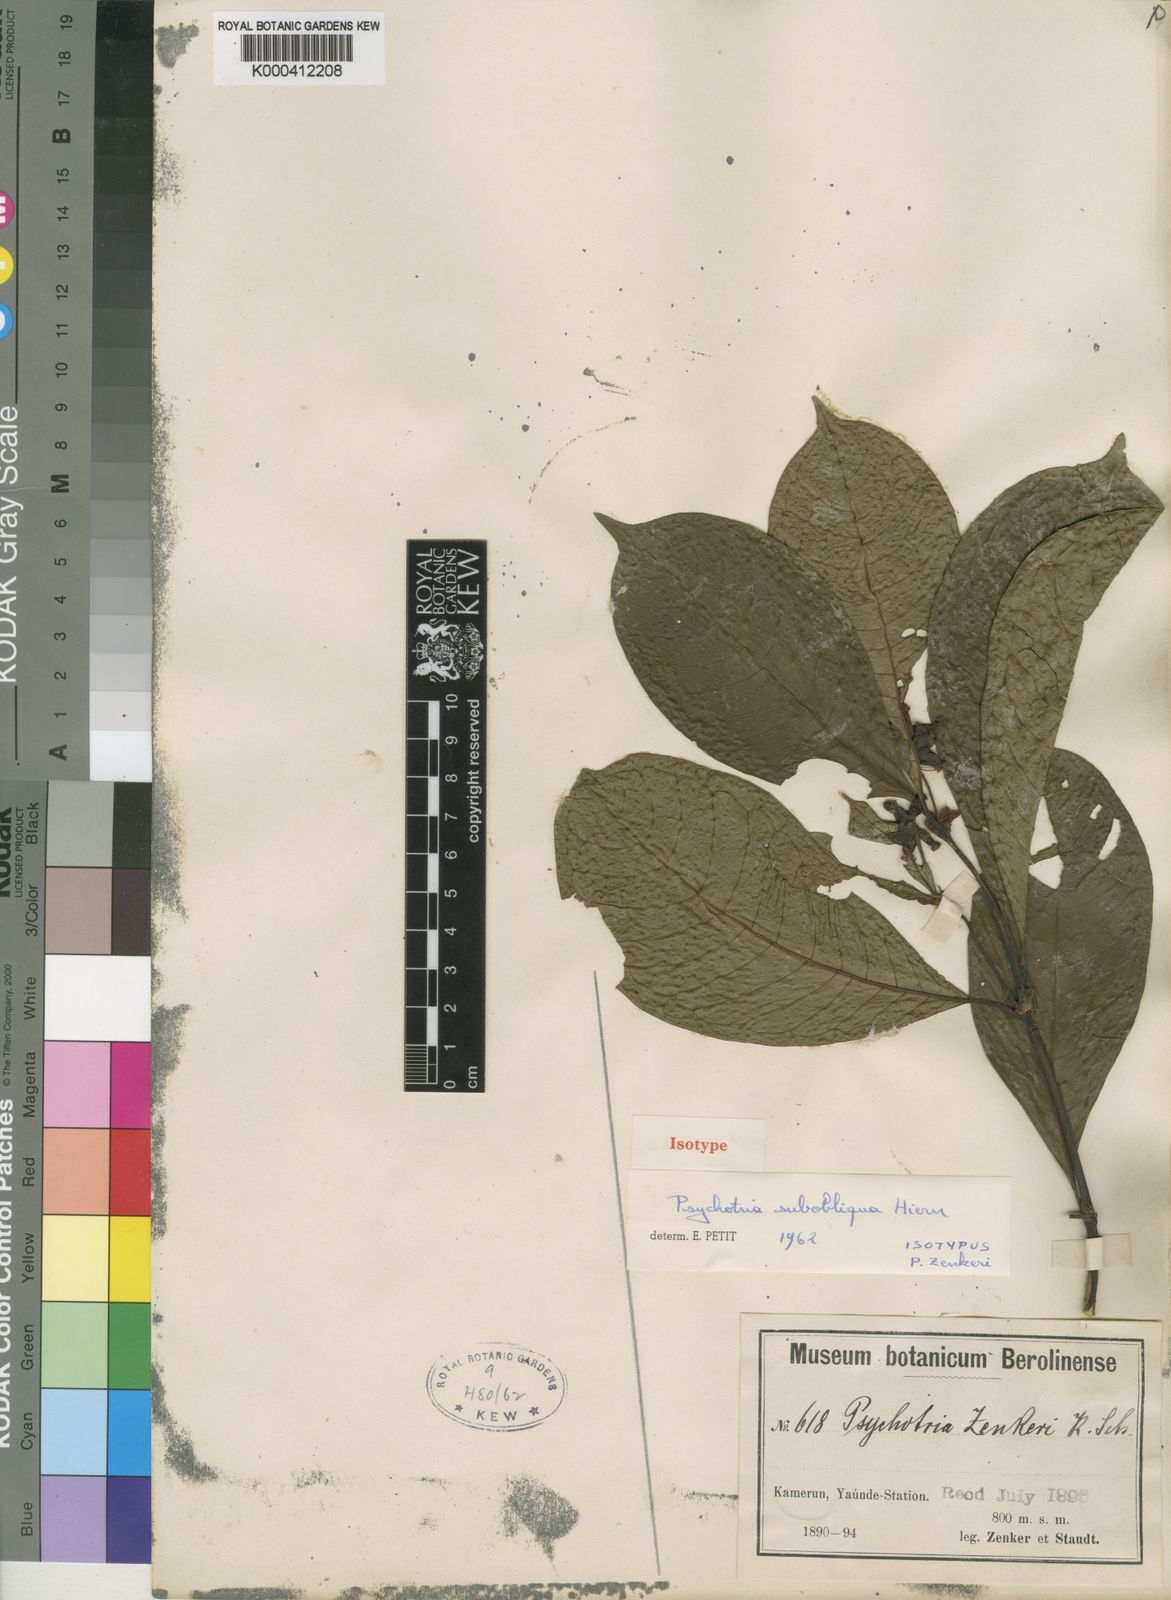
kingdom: Plantae
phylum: Tracheophyta
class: Magnoliopsida
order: Gentianales
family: Rubiaceae
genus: Psychotria
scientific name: Psychotria subobliqua
